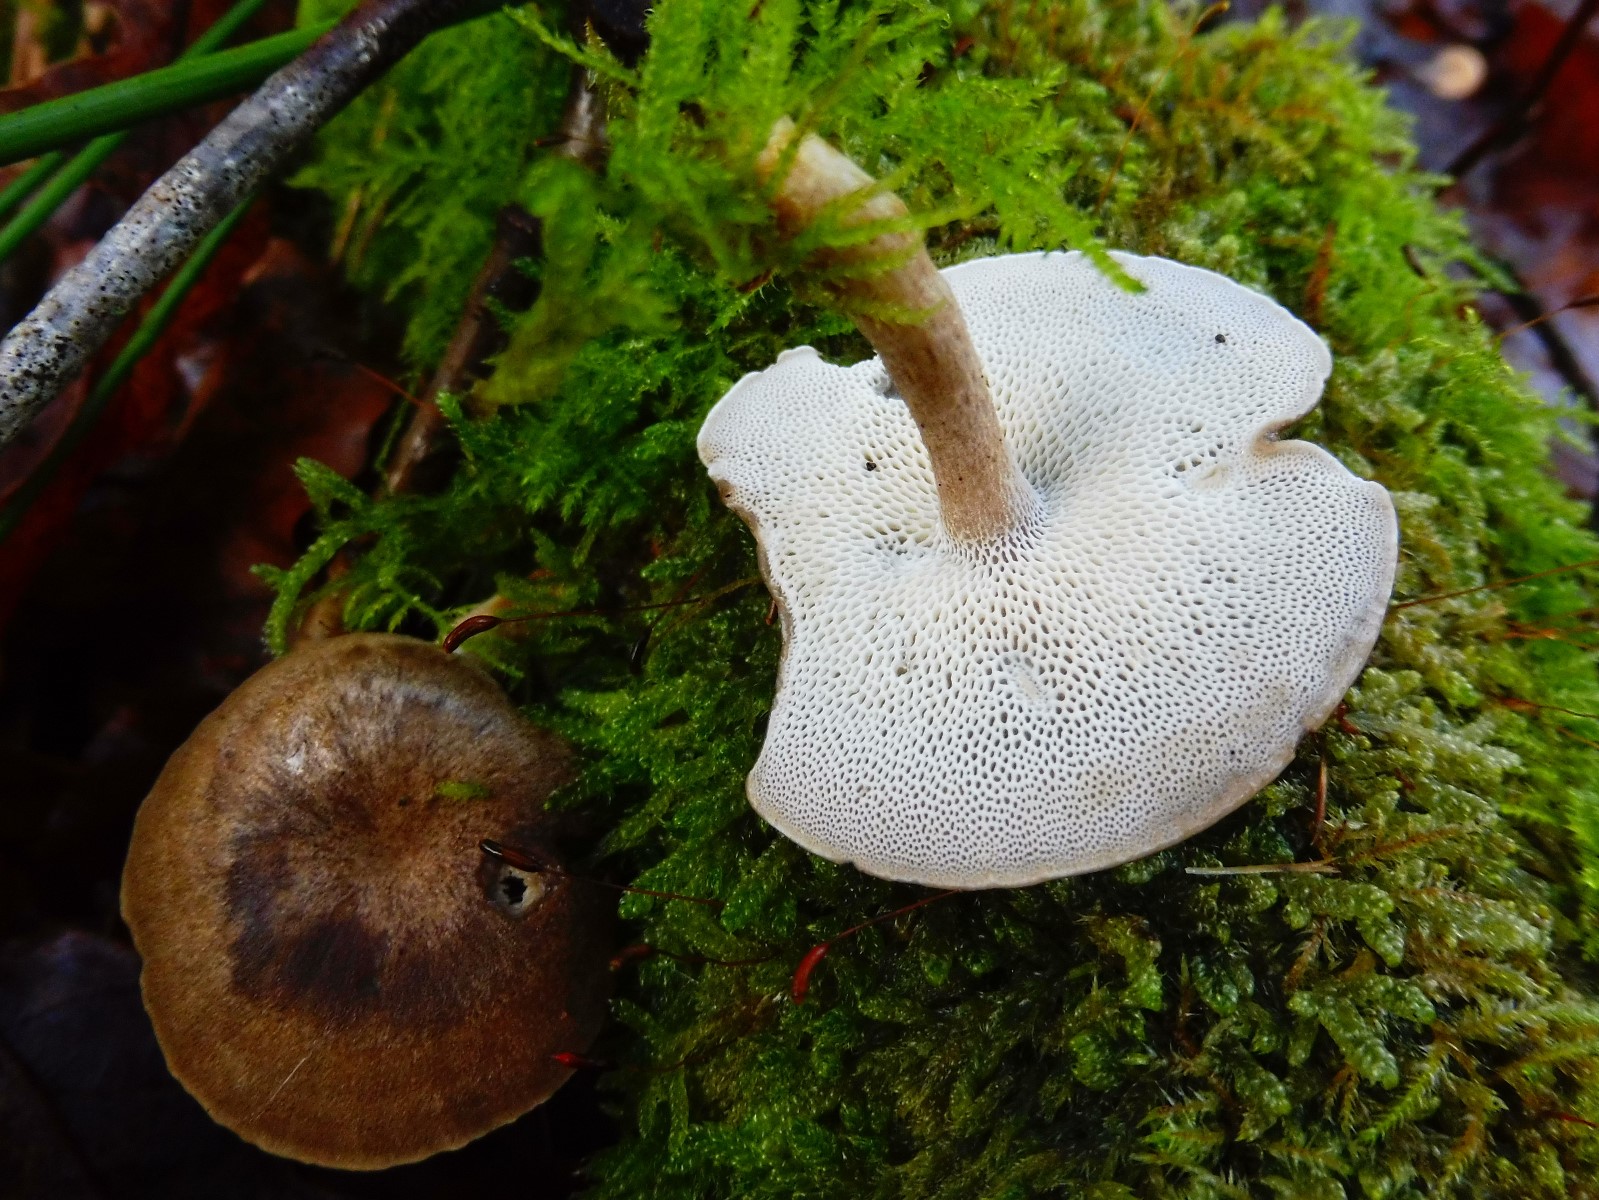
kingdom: Fungi
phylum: Basidiomycota
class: Agaricomycetes
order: Polyporales
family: Polyporaceae
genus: Lentinus
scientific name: Lentinus brumalis
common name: vinter-stilkporesvamp
